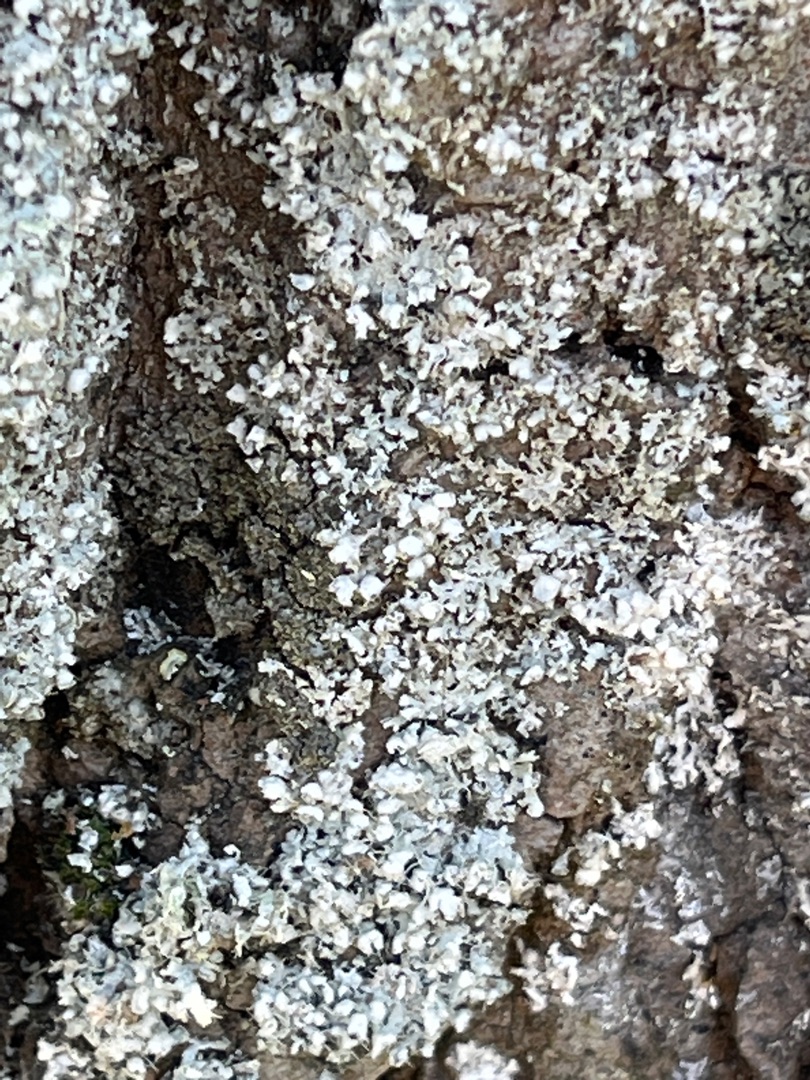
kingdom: Fungi
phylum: Ascomycota
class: Lecanoromycetes
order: Caliciales
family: Physciaceae
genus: Physcia
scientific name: Physcia adscendens
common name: Hætte-rosetlav
